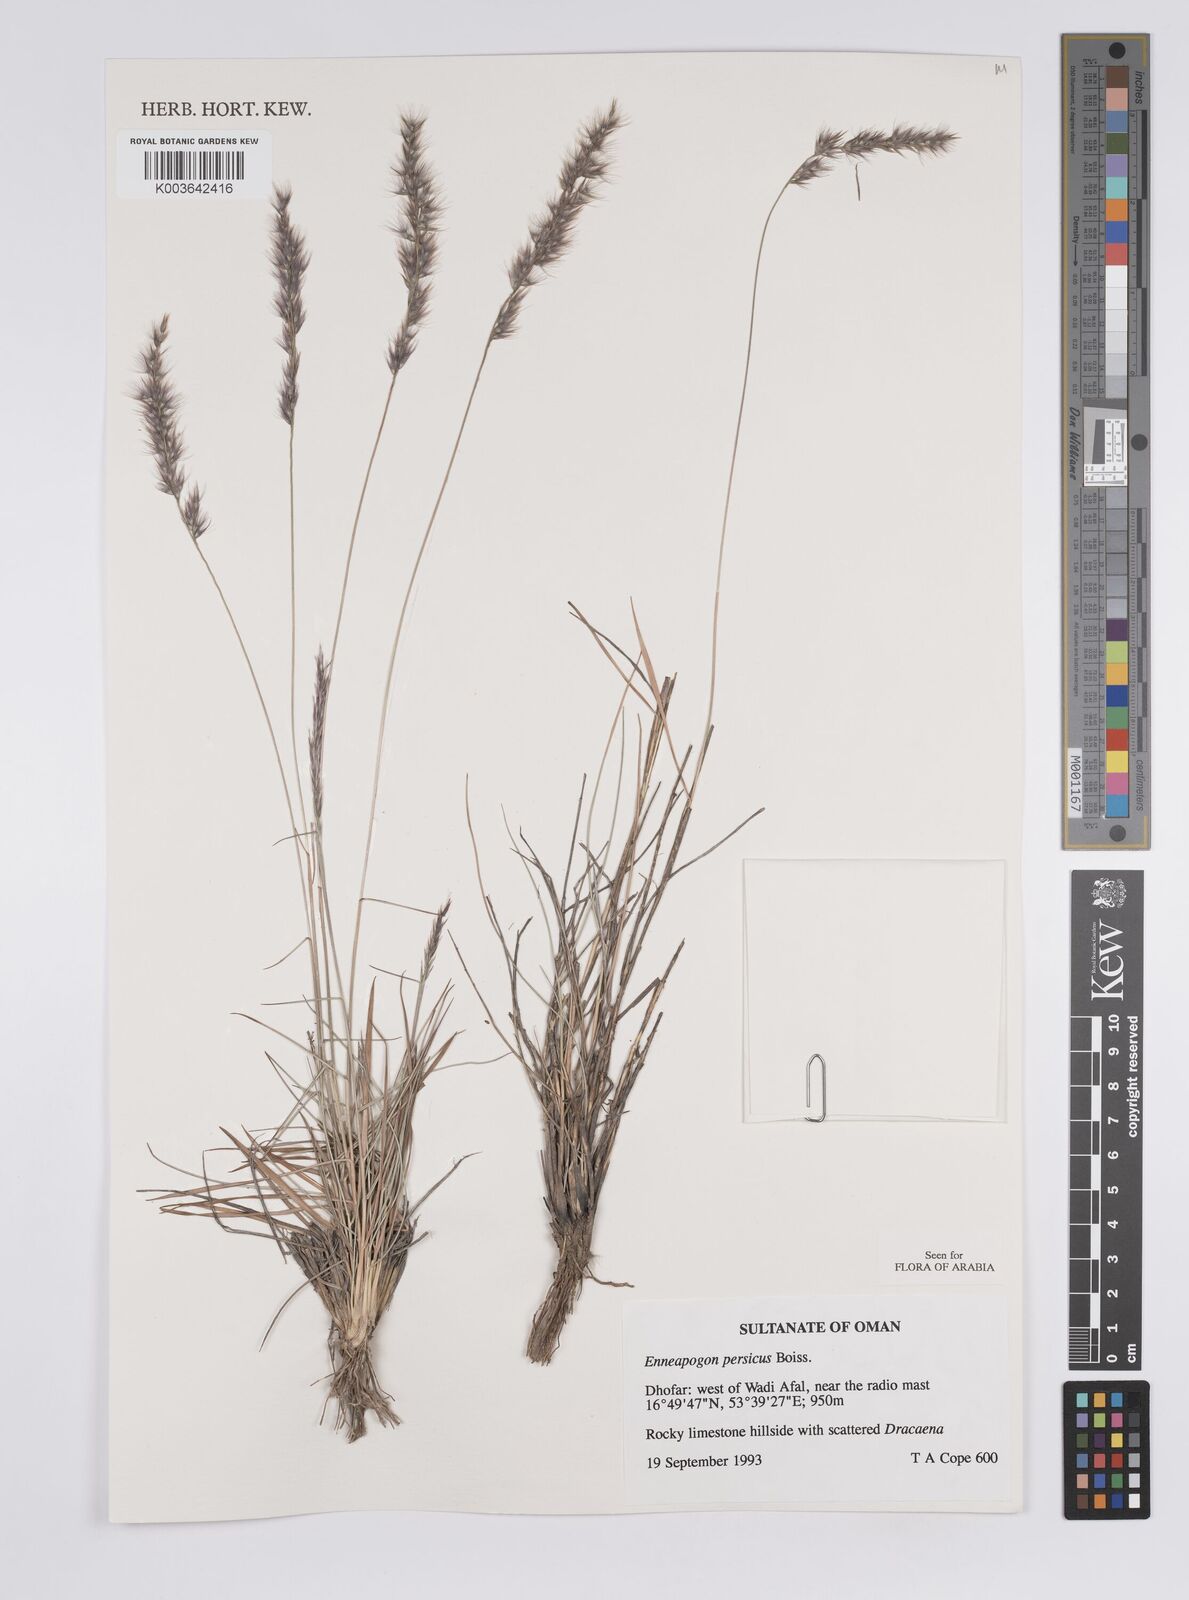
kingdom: Plantae
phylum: Tracheophyta
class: Liliopsida
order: Poales
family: Poaceae
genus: Enneapogon
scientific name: Enneapogon persicus
